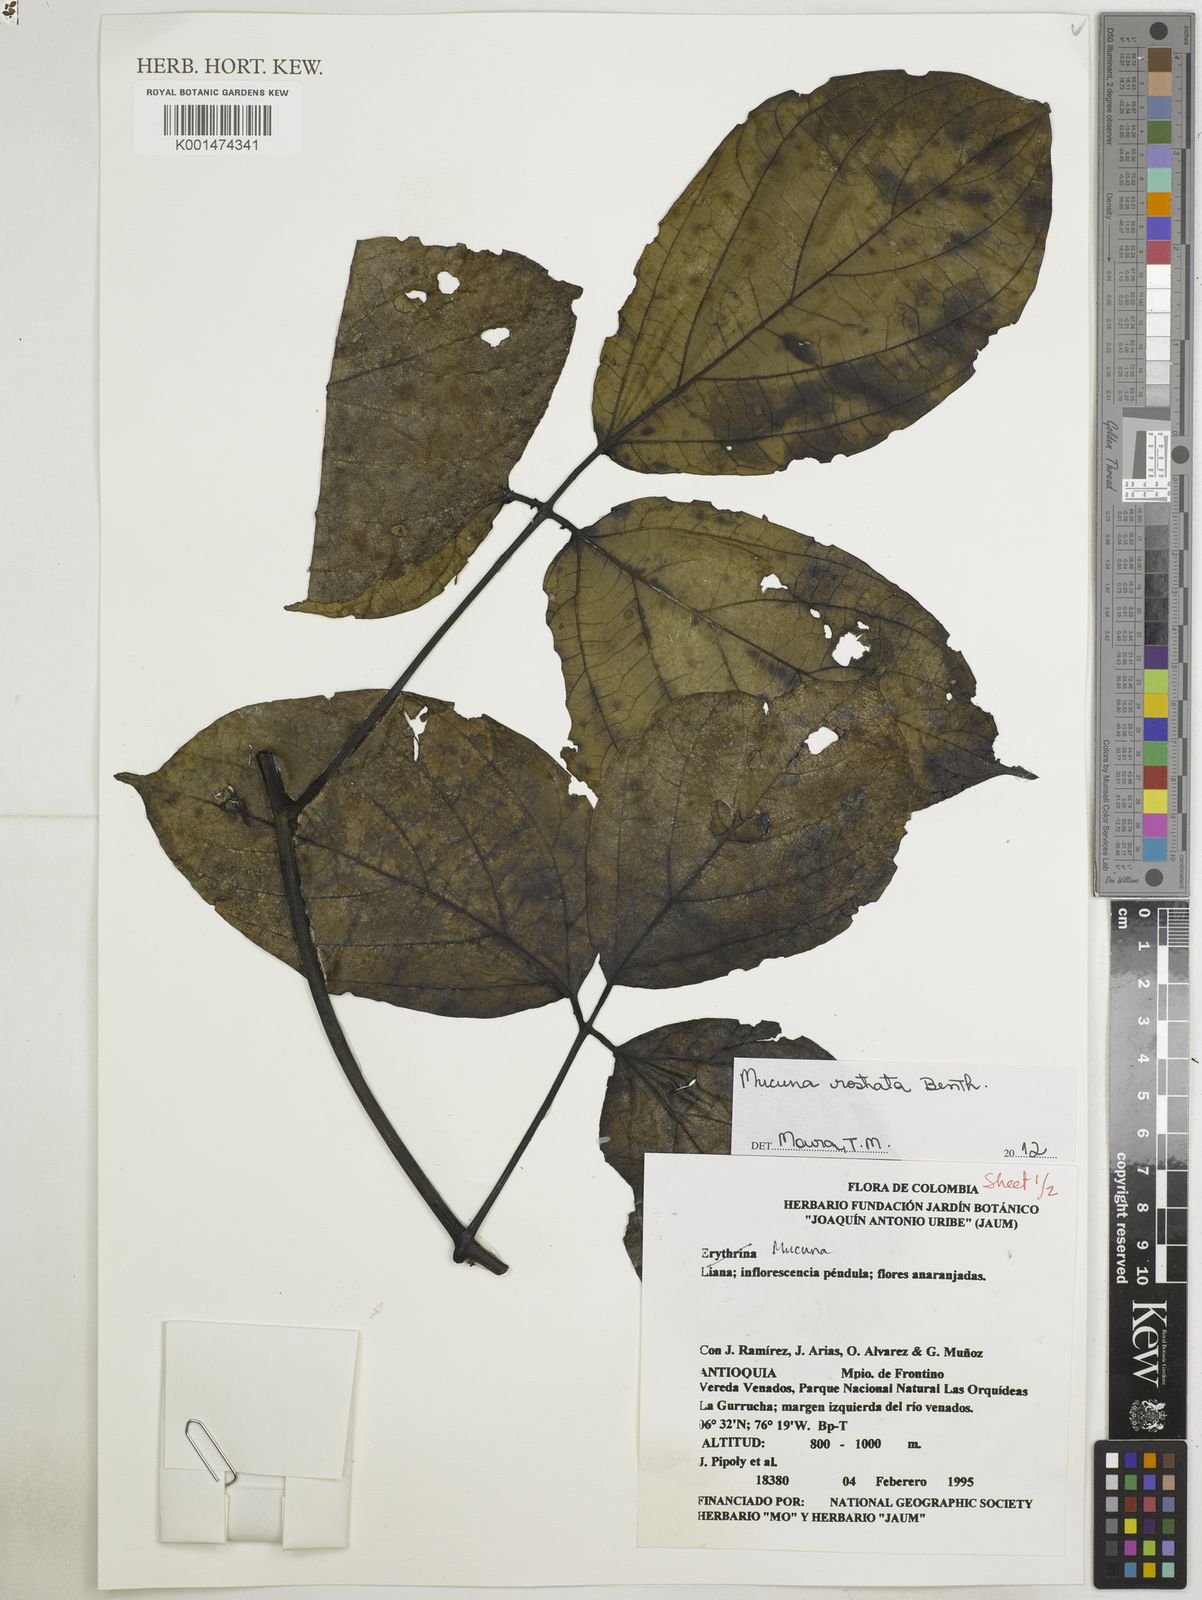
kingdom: Plantae
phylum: Tracheophyta
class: Magnoliopsida
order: Fabales
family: Fabaceae
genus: Mucuna
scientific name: Mucuna rostrata
